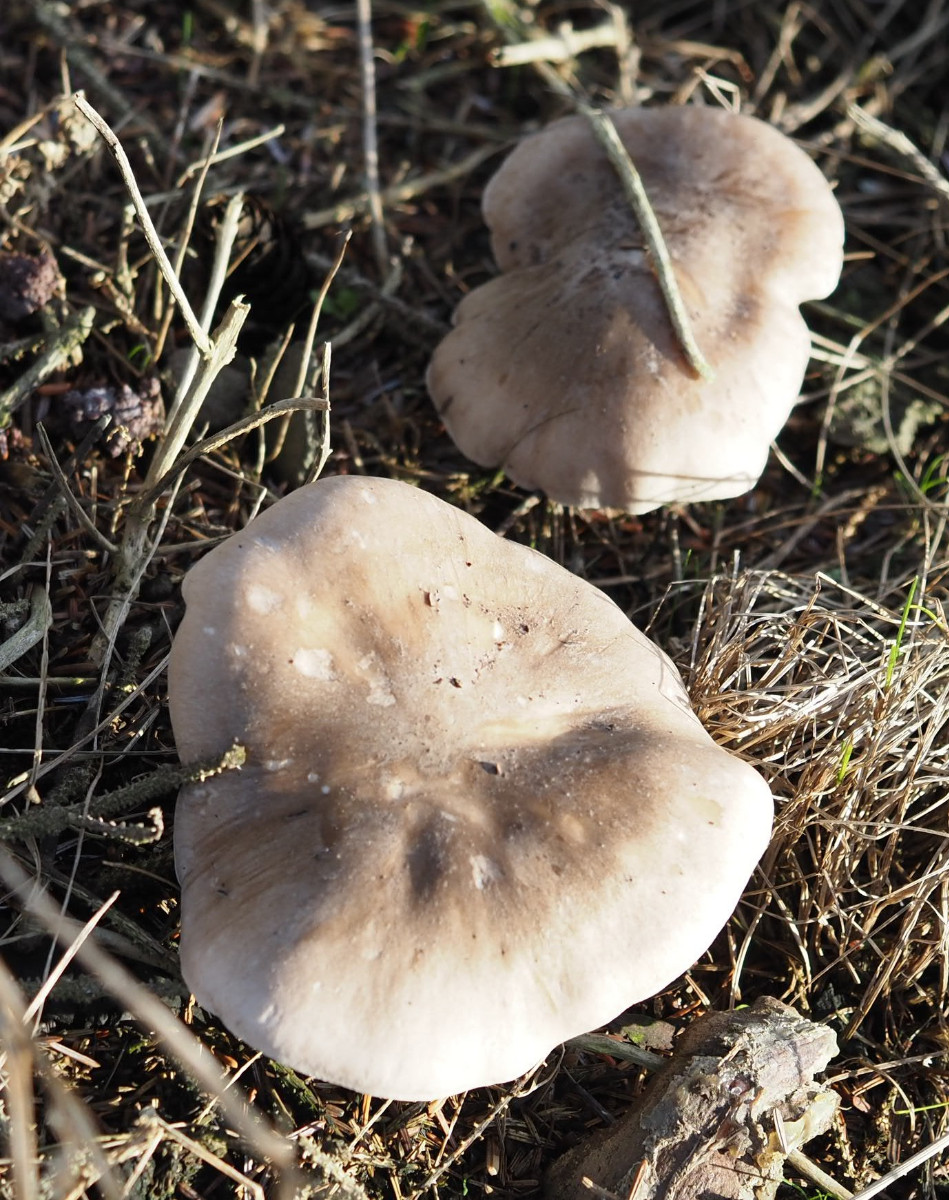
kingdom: Fungi
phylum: Basidiomycota
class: Agaricomycetes
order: Agaricales
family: Tricholomataceae
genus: Clitocybe
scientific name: Clitocybe nebularis
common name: tåge-tragthat
